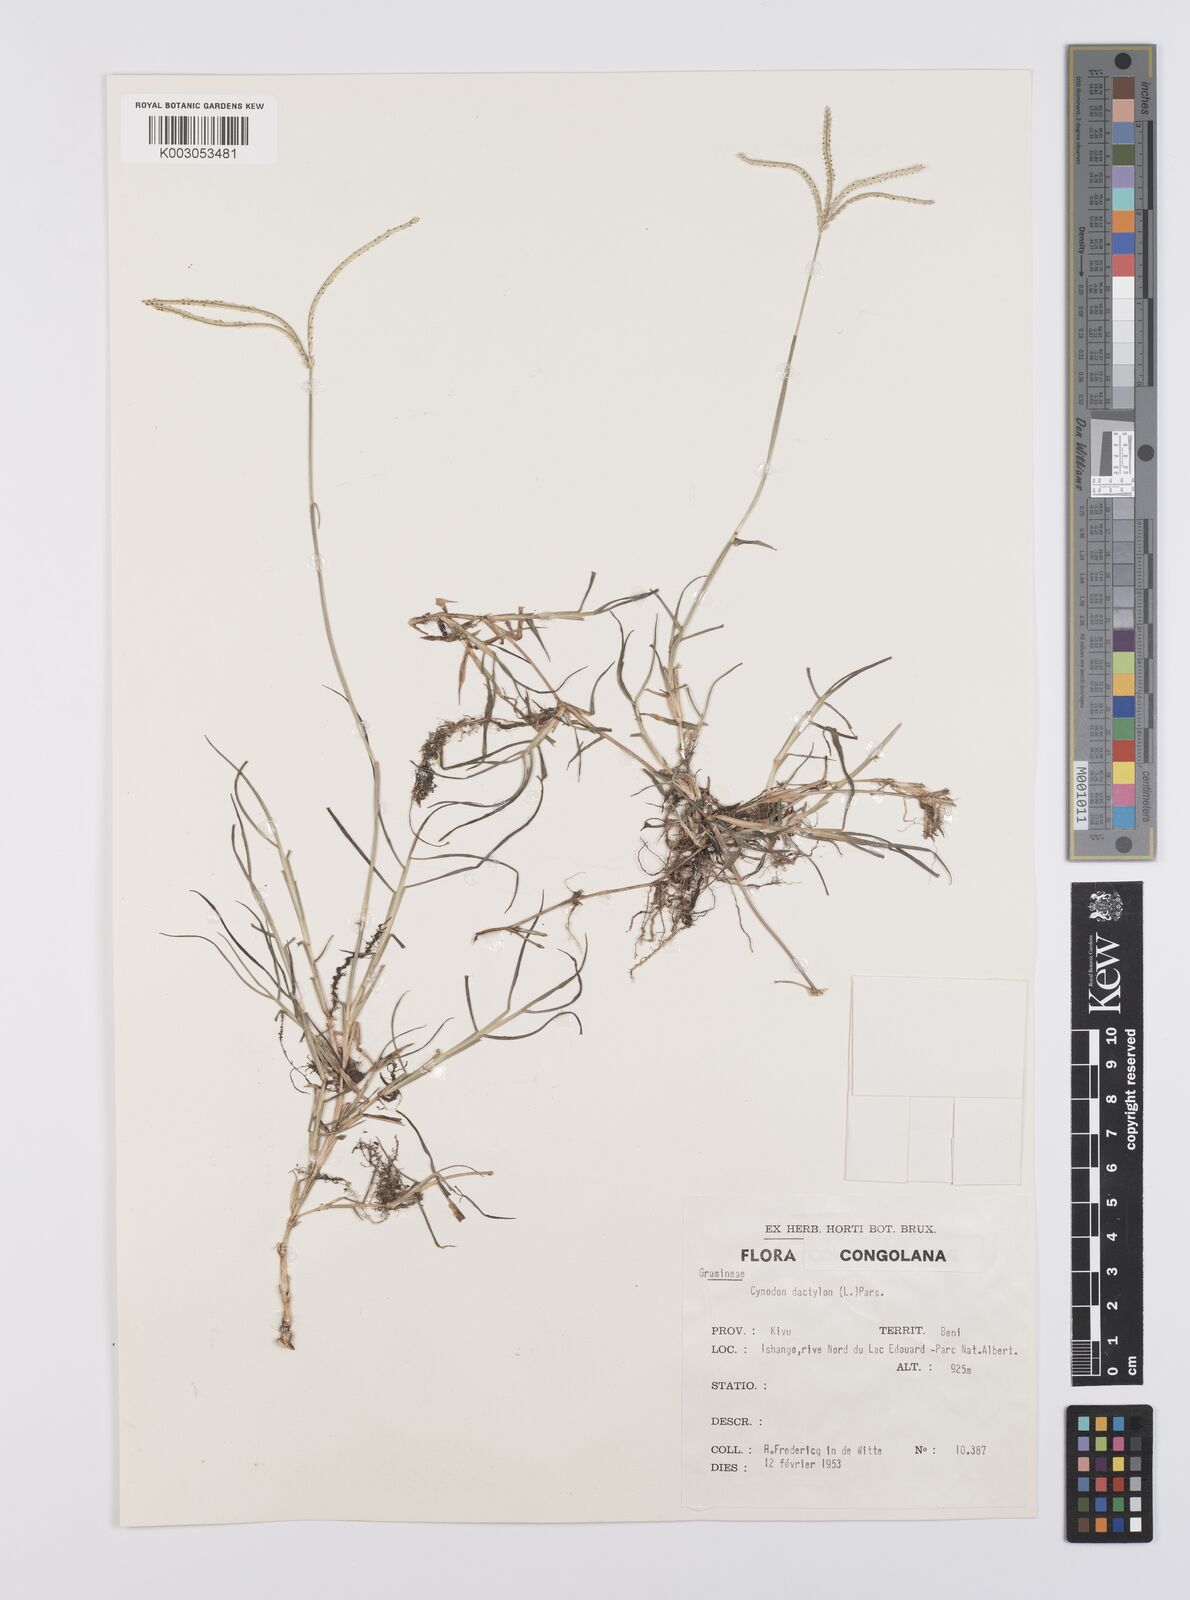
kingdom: Plantae
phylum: Tracheophyta
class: Liliopsida
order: Poales
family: Poaceae
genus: Cynodon
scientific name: Cynodon dactylon
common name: Bermuda grass
